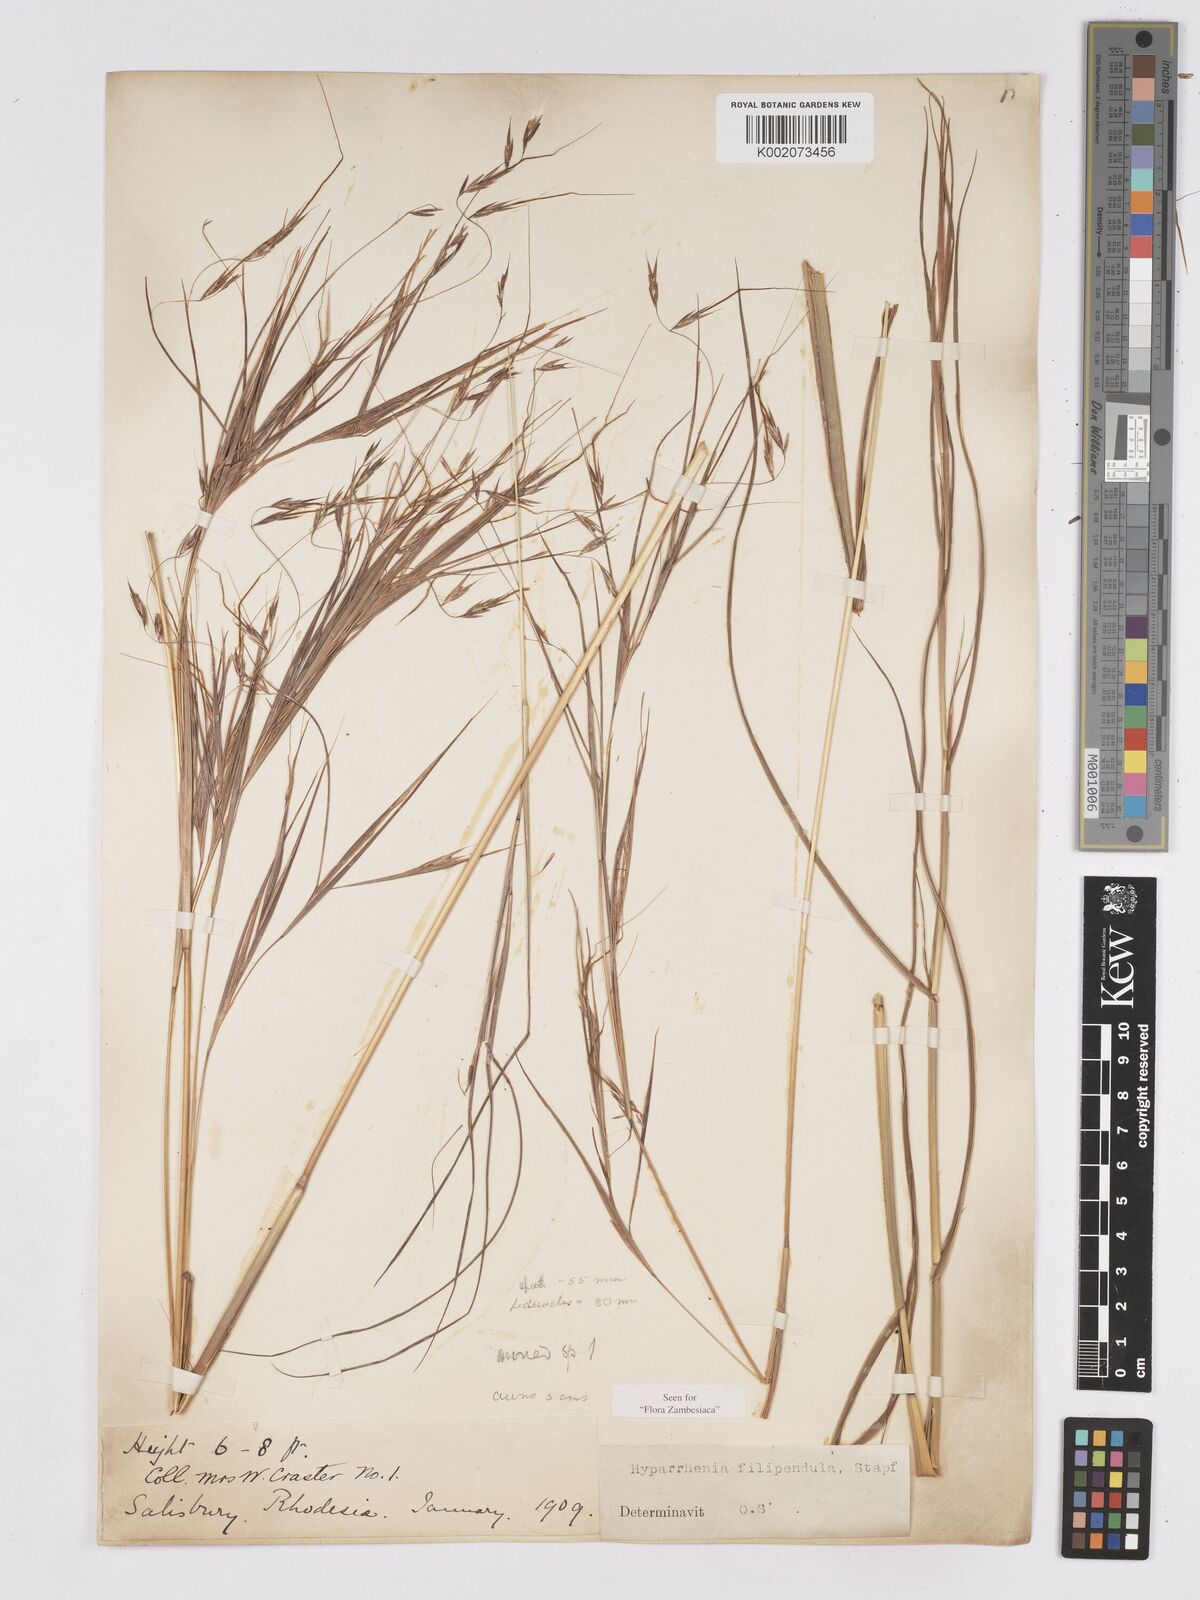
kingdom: Plantae
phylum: Tracheophyta
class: Liliopsida
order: Poales
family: Poaceae
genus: Hyparrhenia
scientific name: Hyparrhenia filipendula
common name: Tambookie grass
